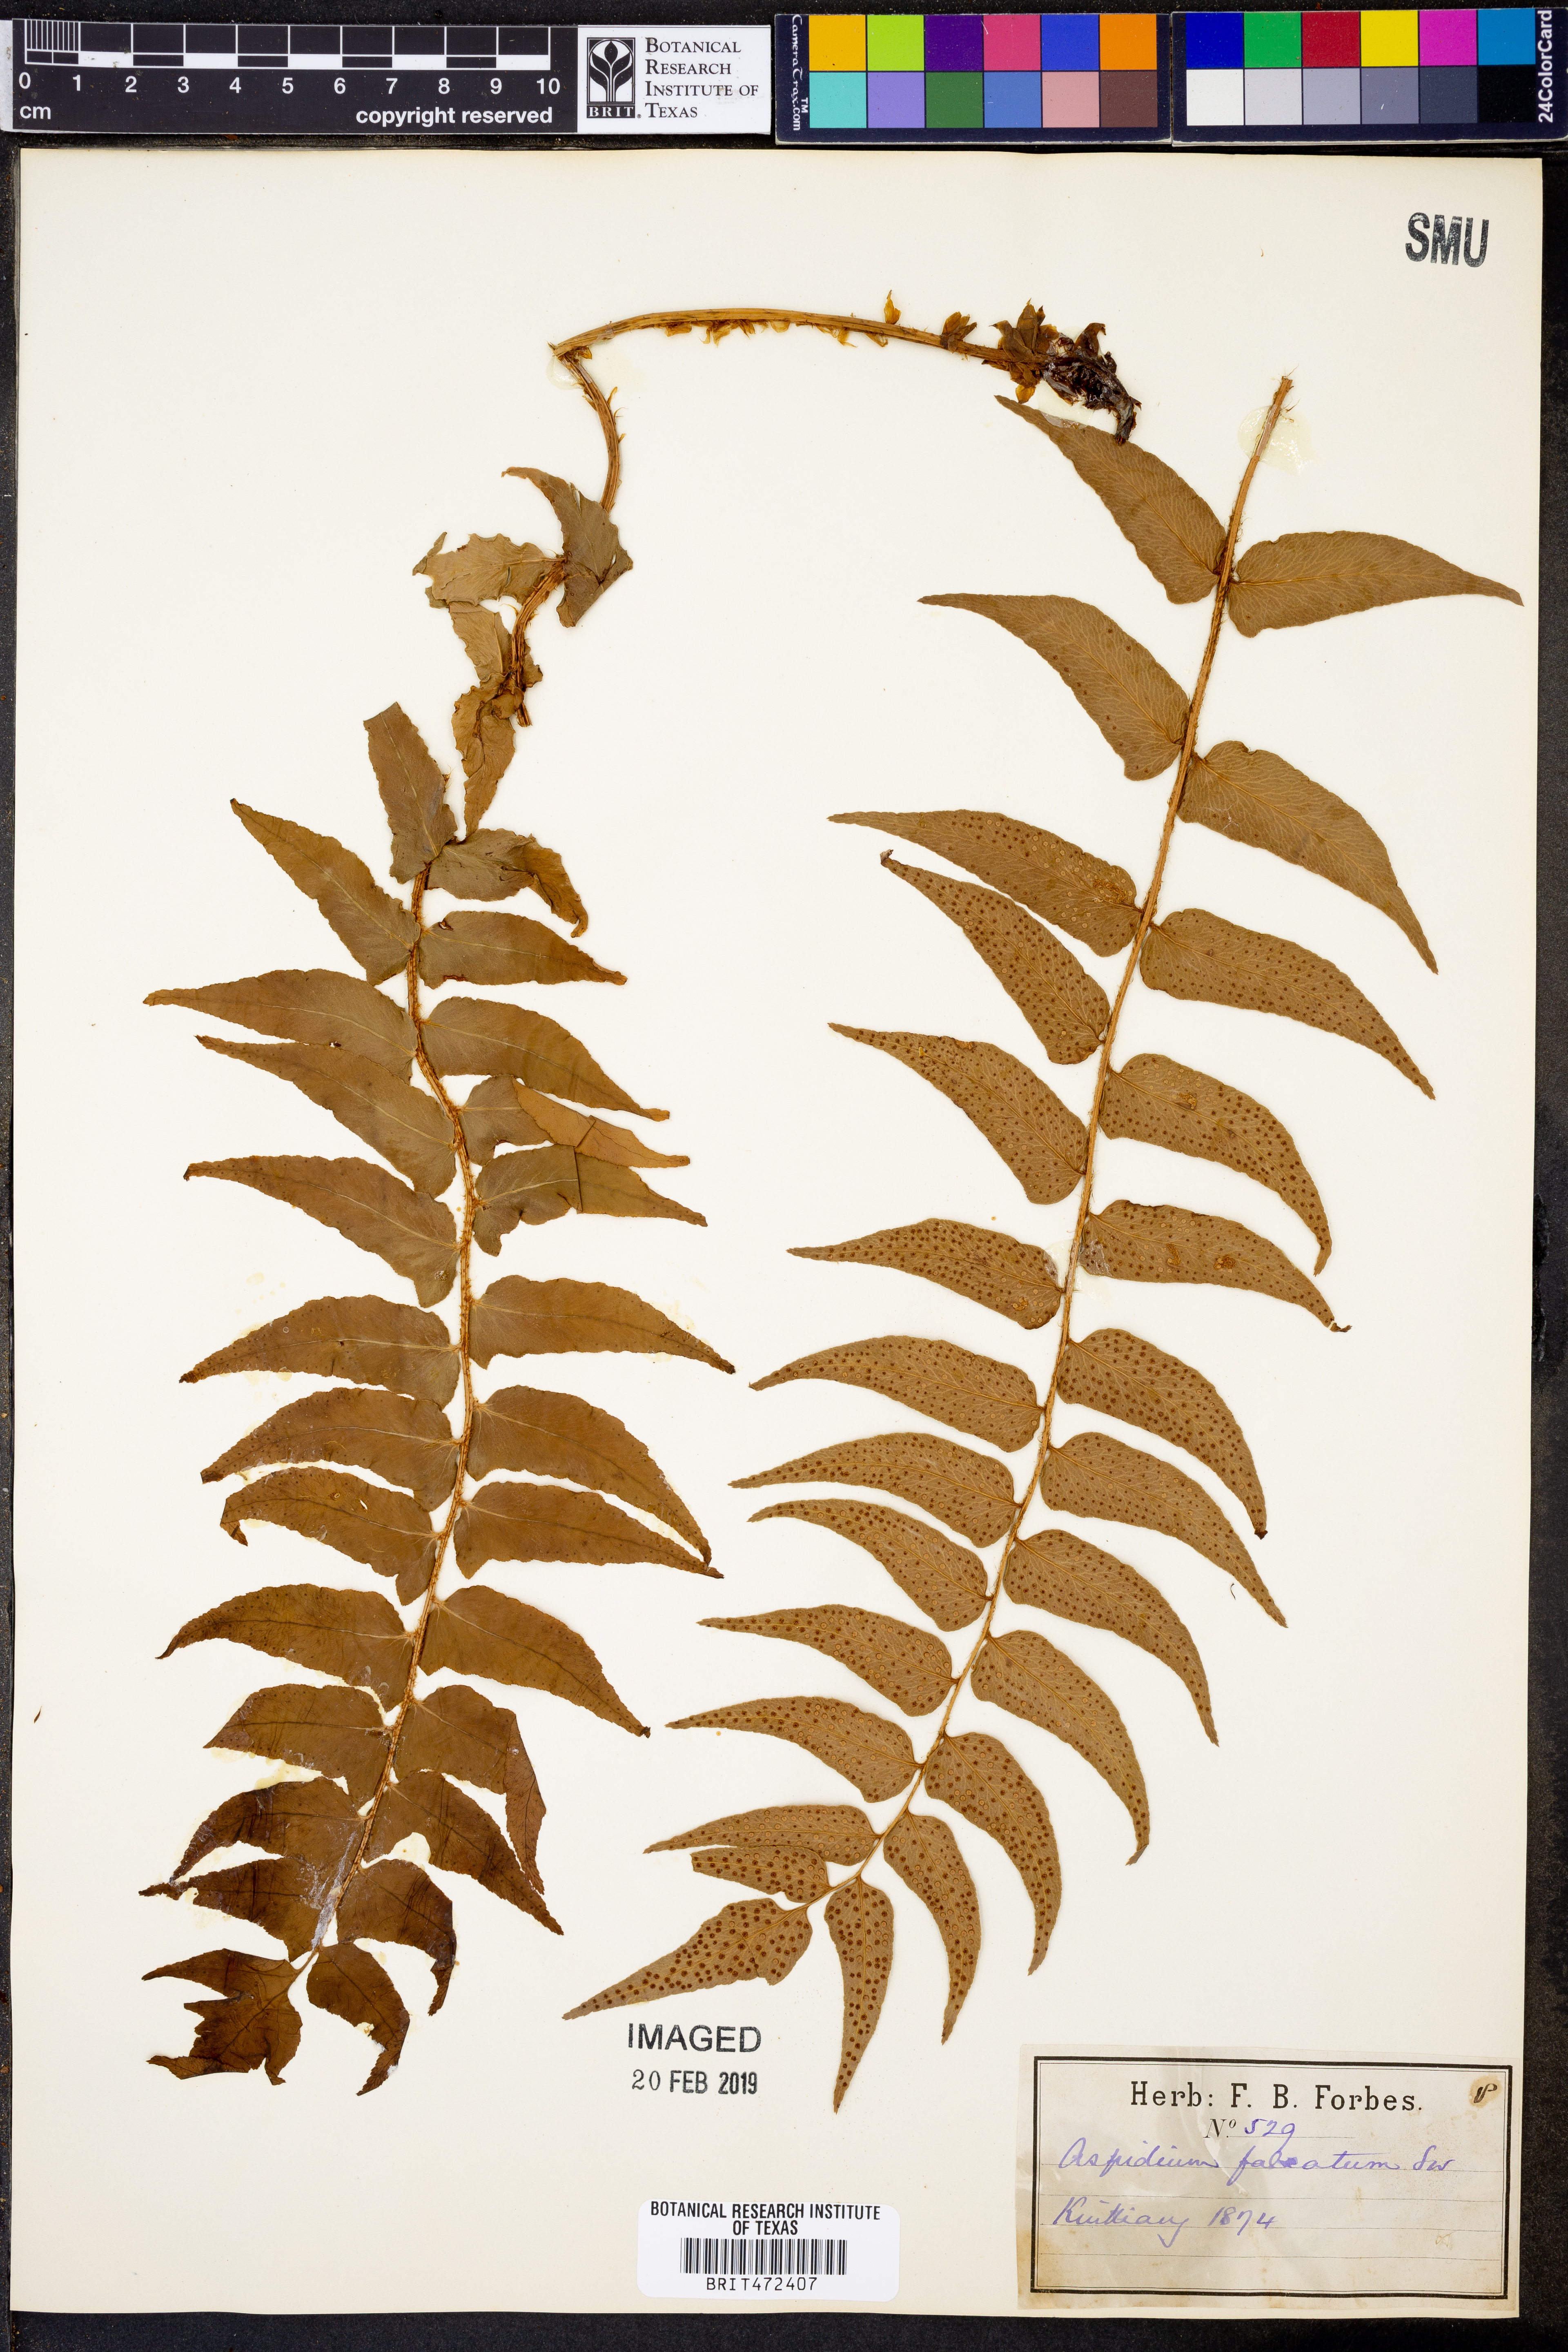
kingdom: Plantae
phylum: Tracheophyta
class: Polypodiopsida
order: Polypodiales
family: Dryopteridaceae
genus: Cyrtomium
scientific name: Cyrtomium falcatum
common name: House holly-fern
